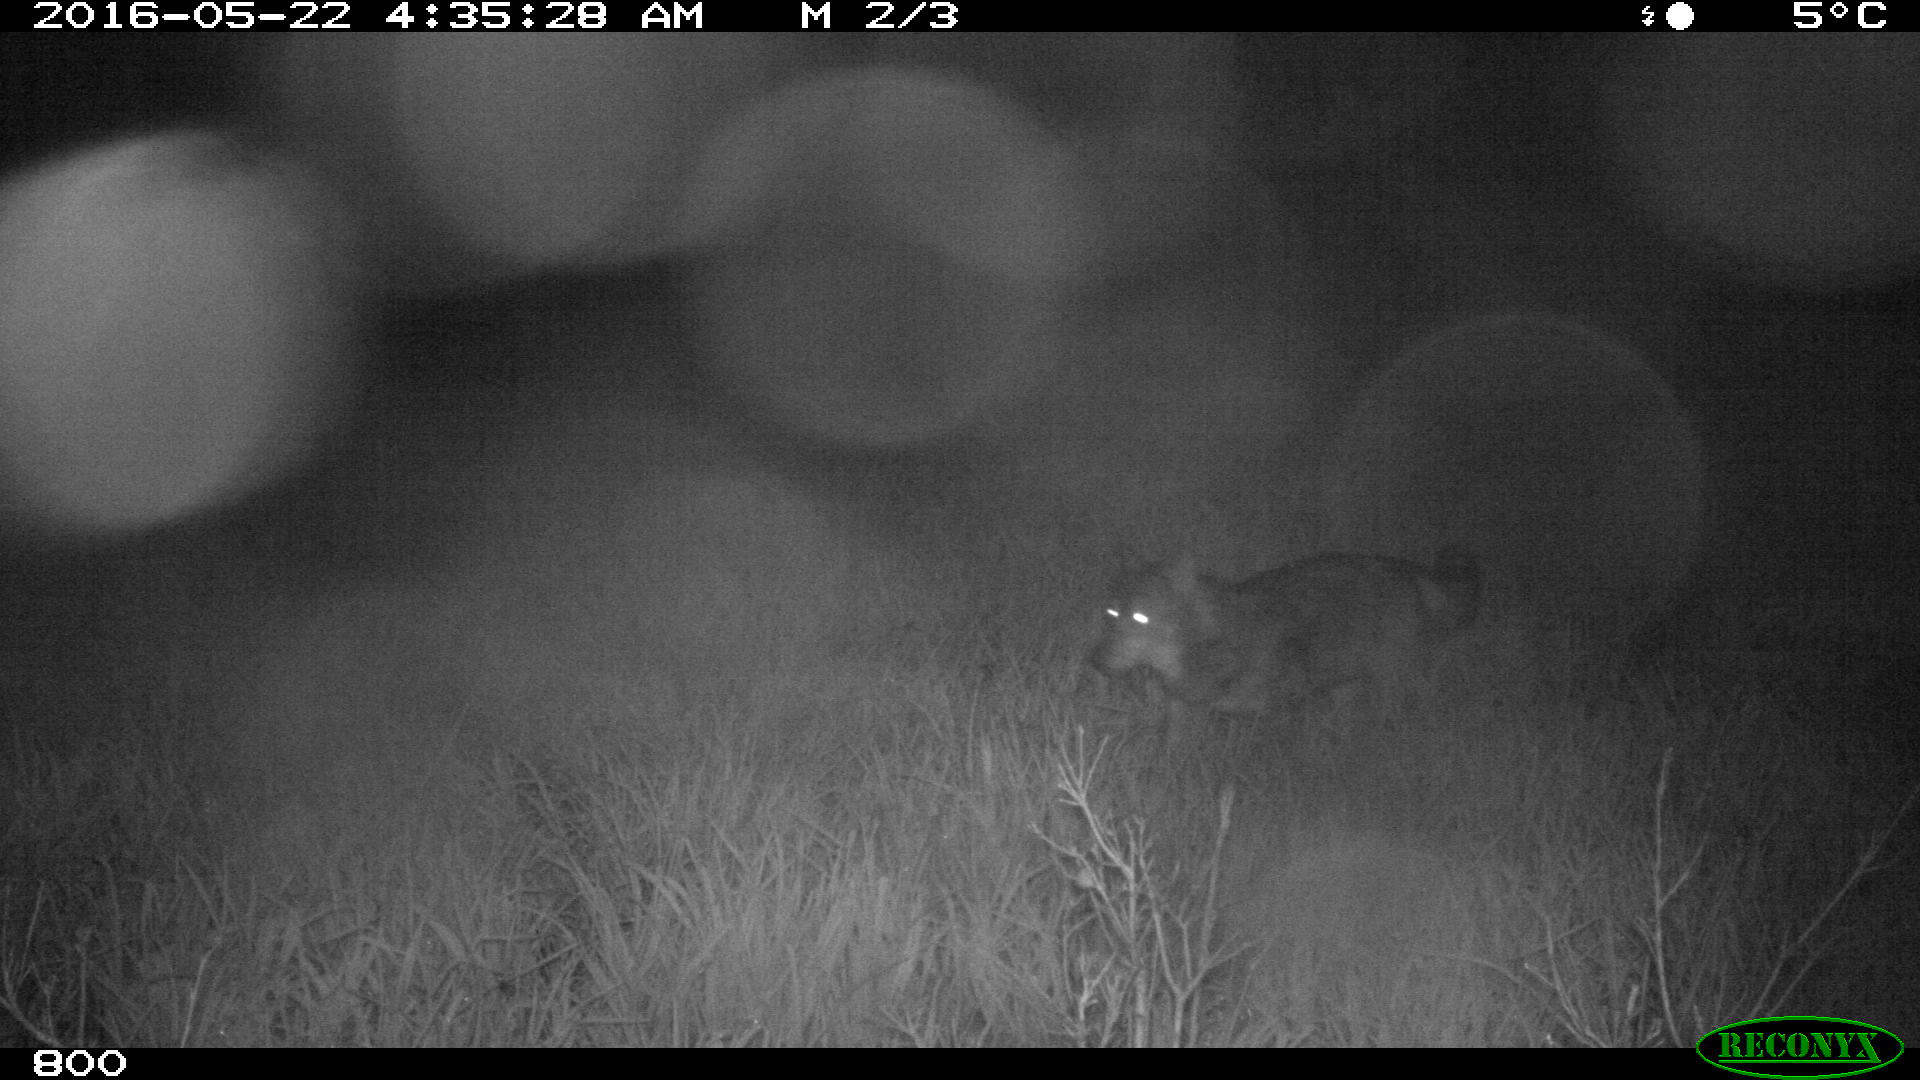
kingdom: Animalia
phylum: Chordata
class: Mammalia
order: Carnivora
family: Canidae
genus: Canis
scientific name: Canis lupus
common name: Gray wolf
